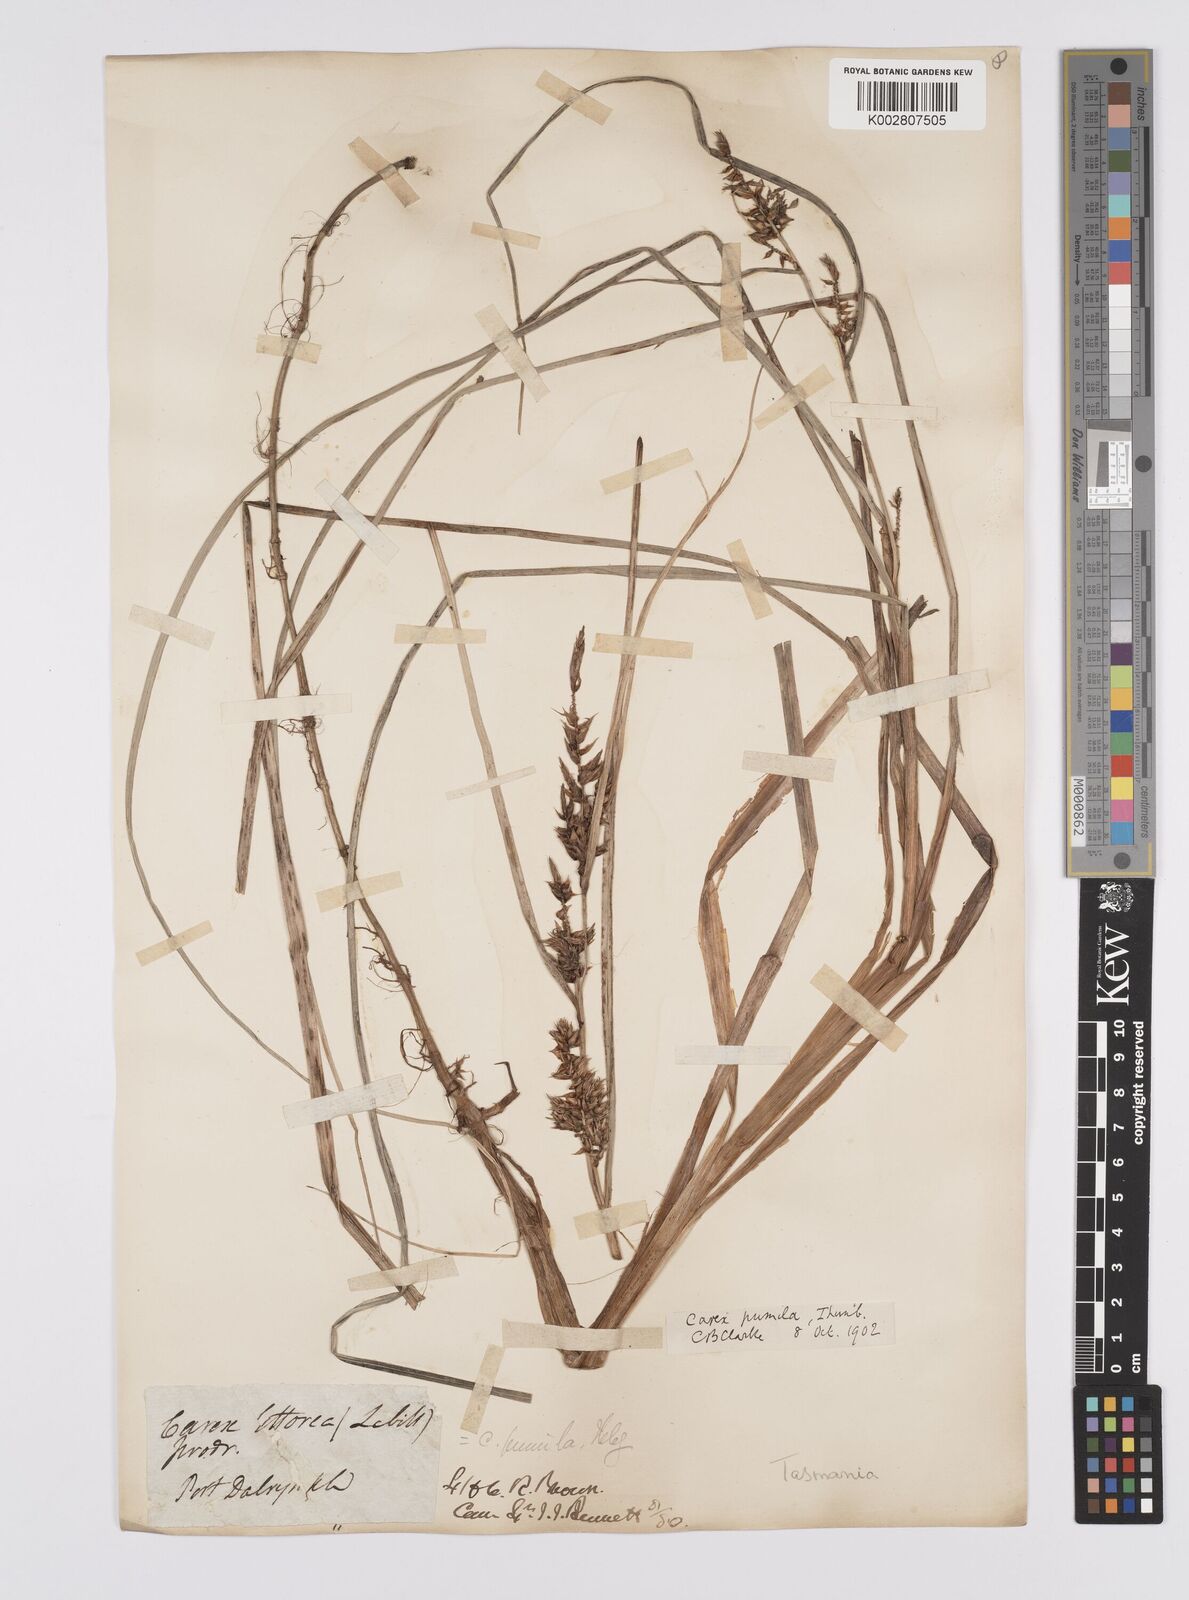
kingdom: Plantae
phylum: Tracheophyta
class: Liliopsida
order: Poales
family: Cyperaceae
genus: Carex
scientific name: Carex pumila
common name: Dwarf sedge
